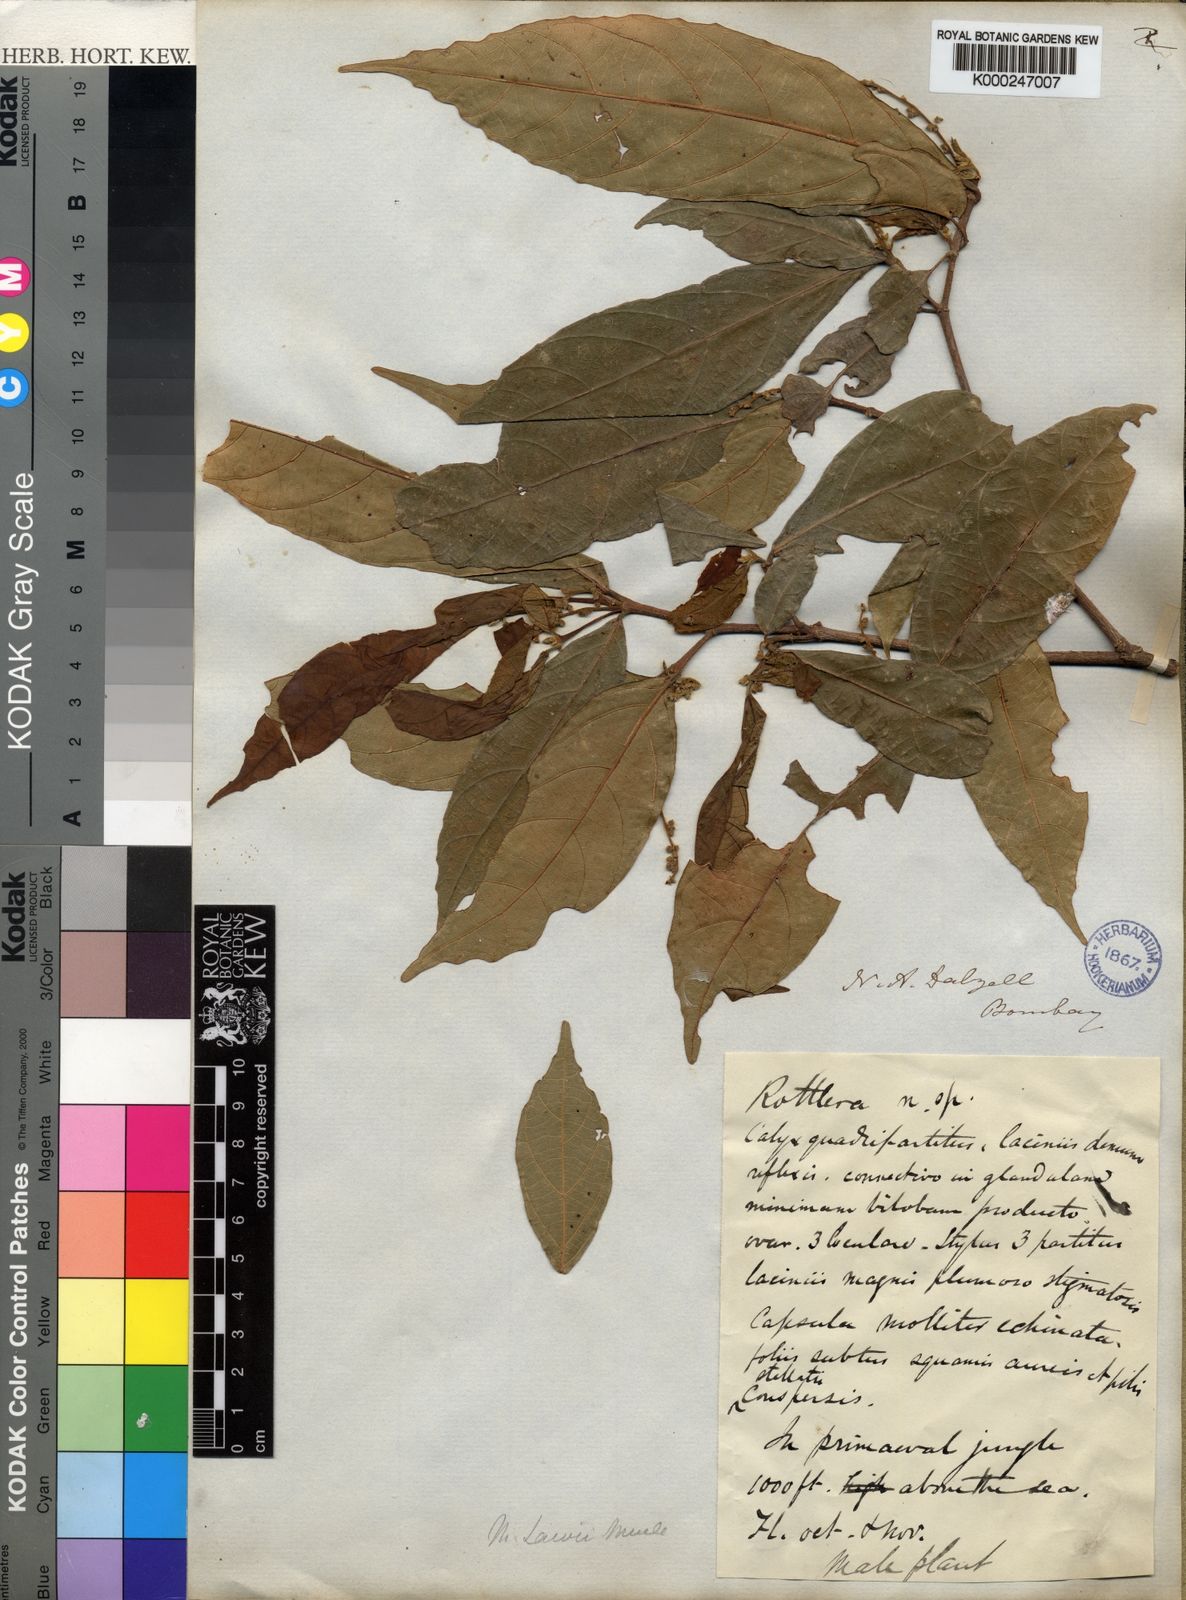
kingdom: Plantae
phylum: Tracheophyta
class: Magnoliopsida
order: Malpighiales
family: Euphorbiaceae
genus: Mallotus
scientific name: Mallotus resinosus
